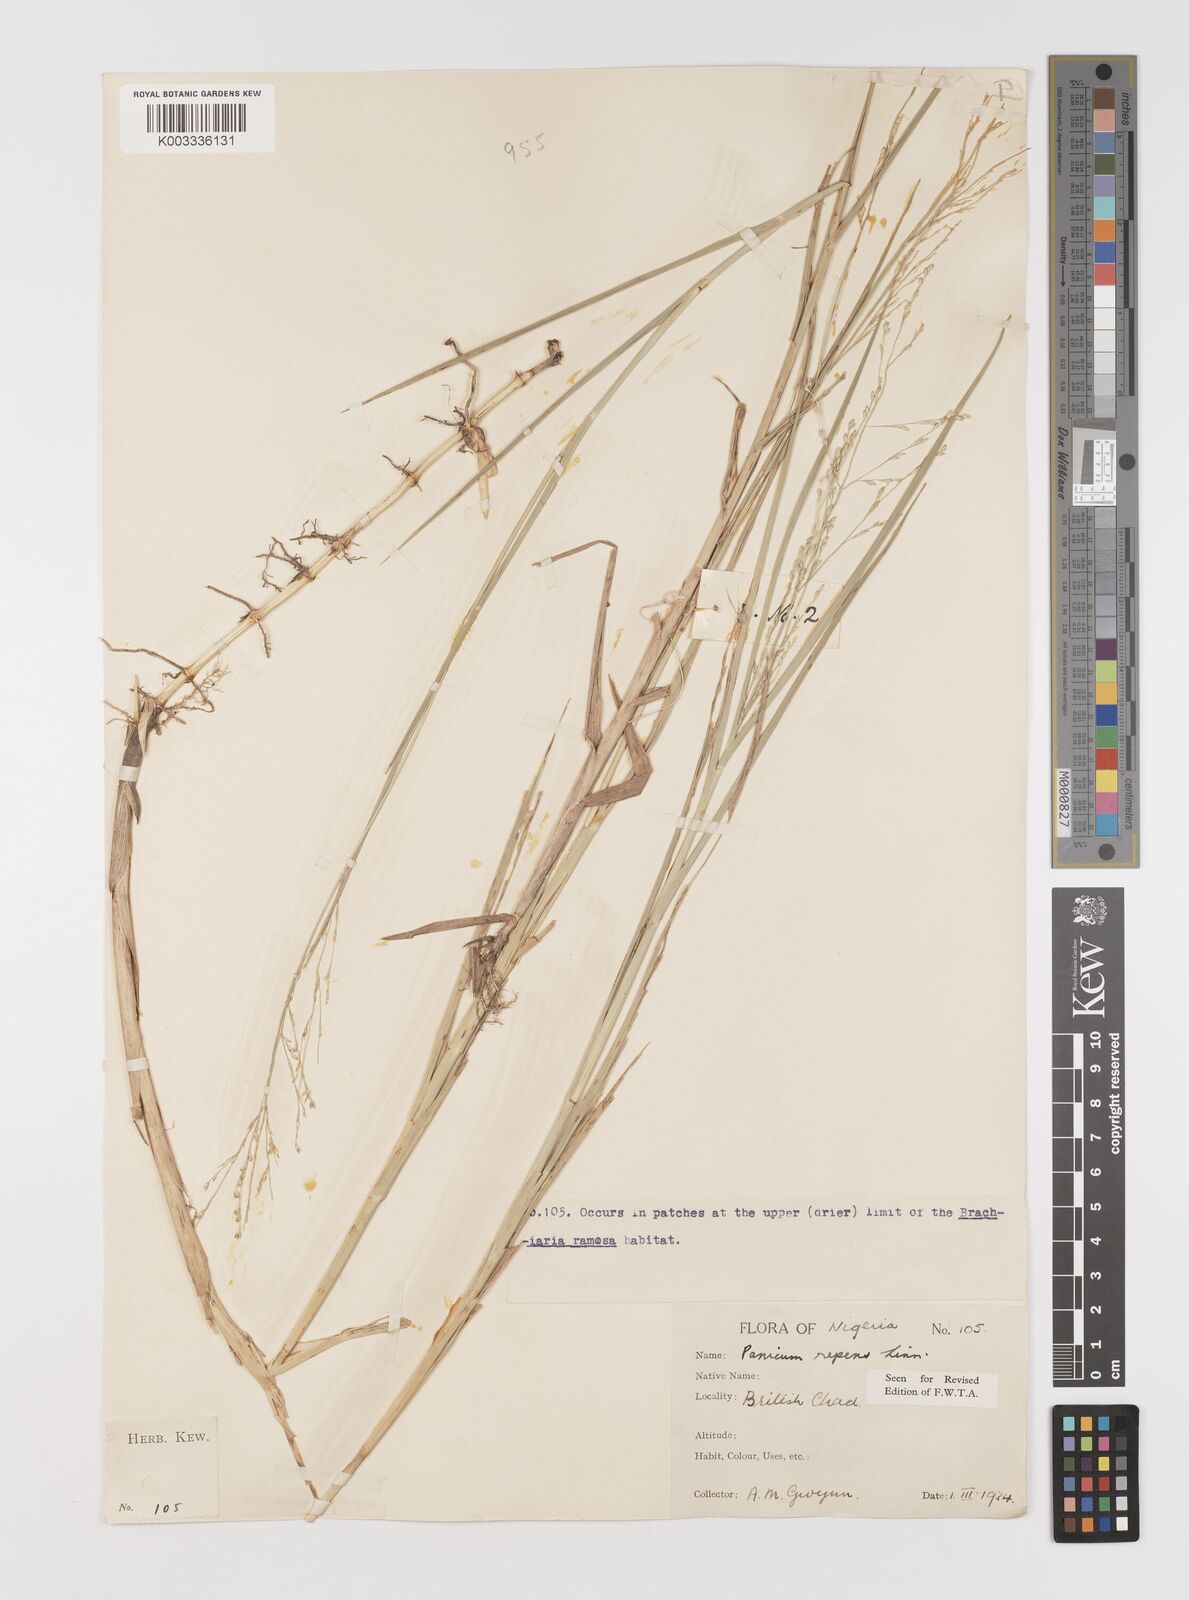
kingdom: Plantae
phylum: Tracheophyta
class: Liliopsida
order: Poales
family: Poaceae
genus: Panicum
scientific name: Panicum repens
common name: Torpedo grass
